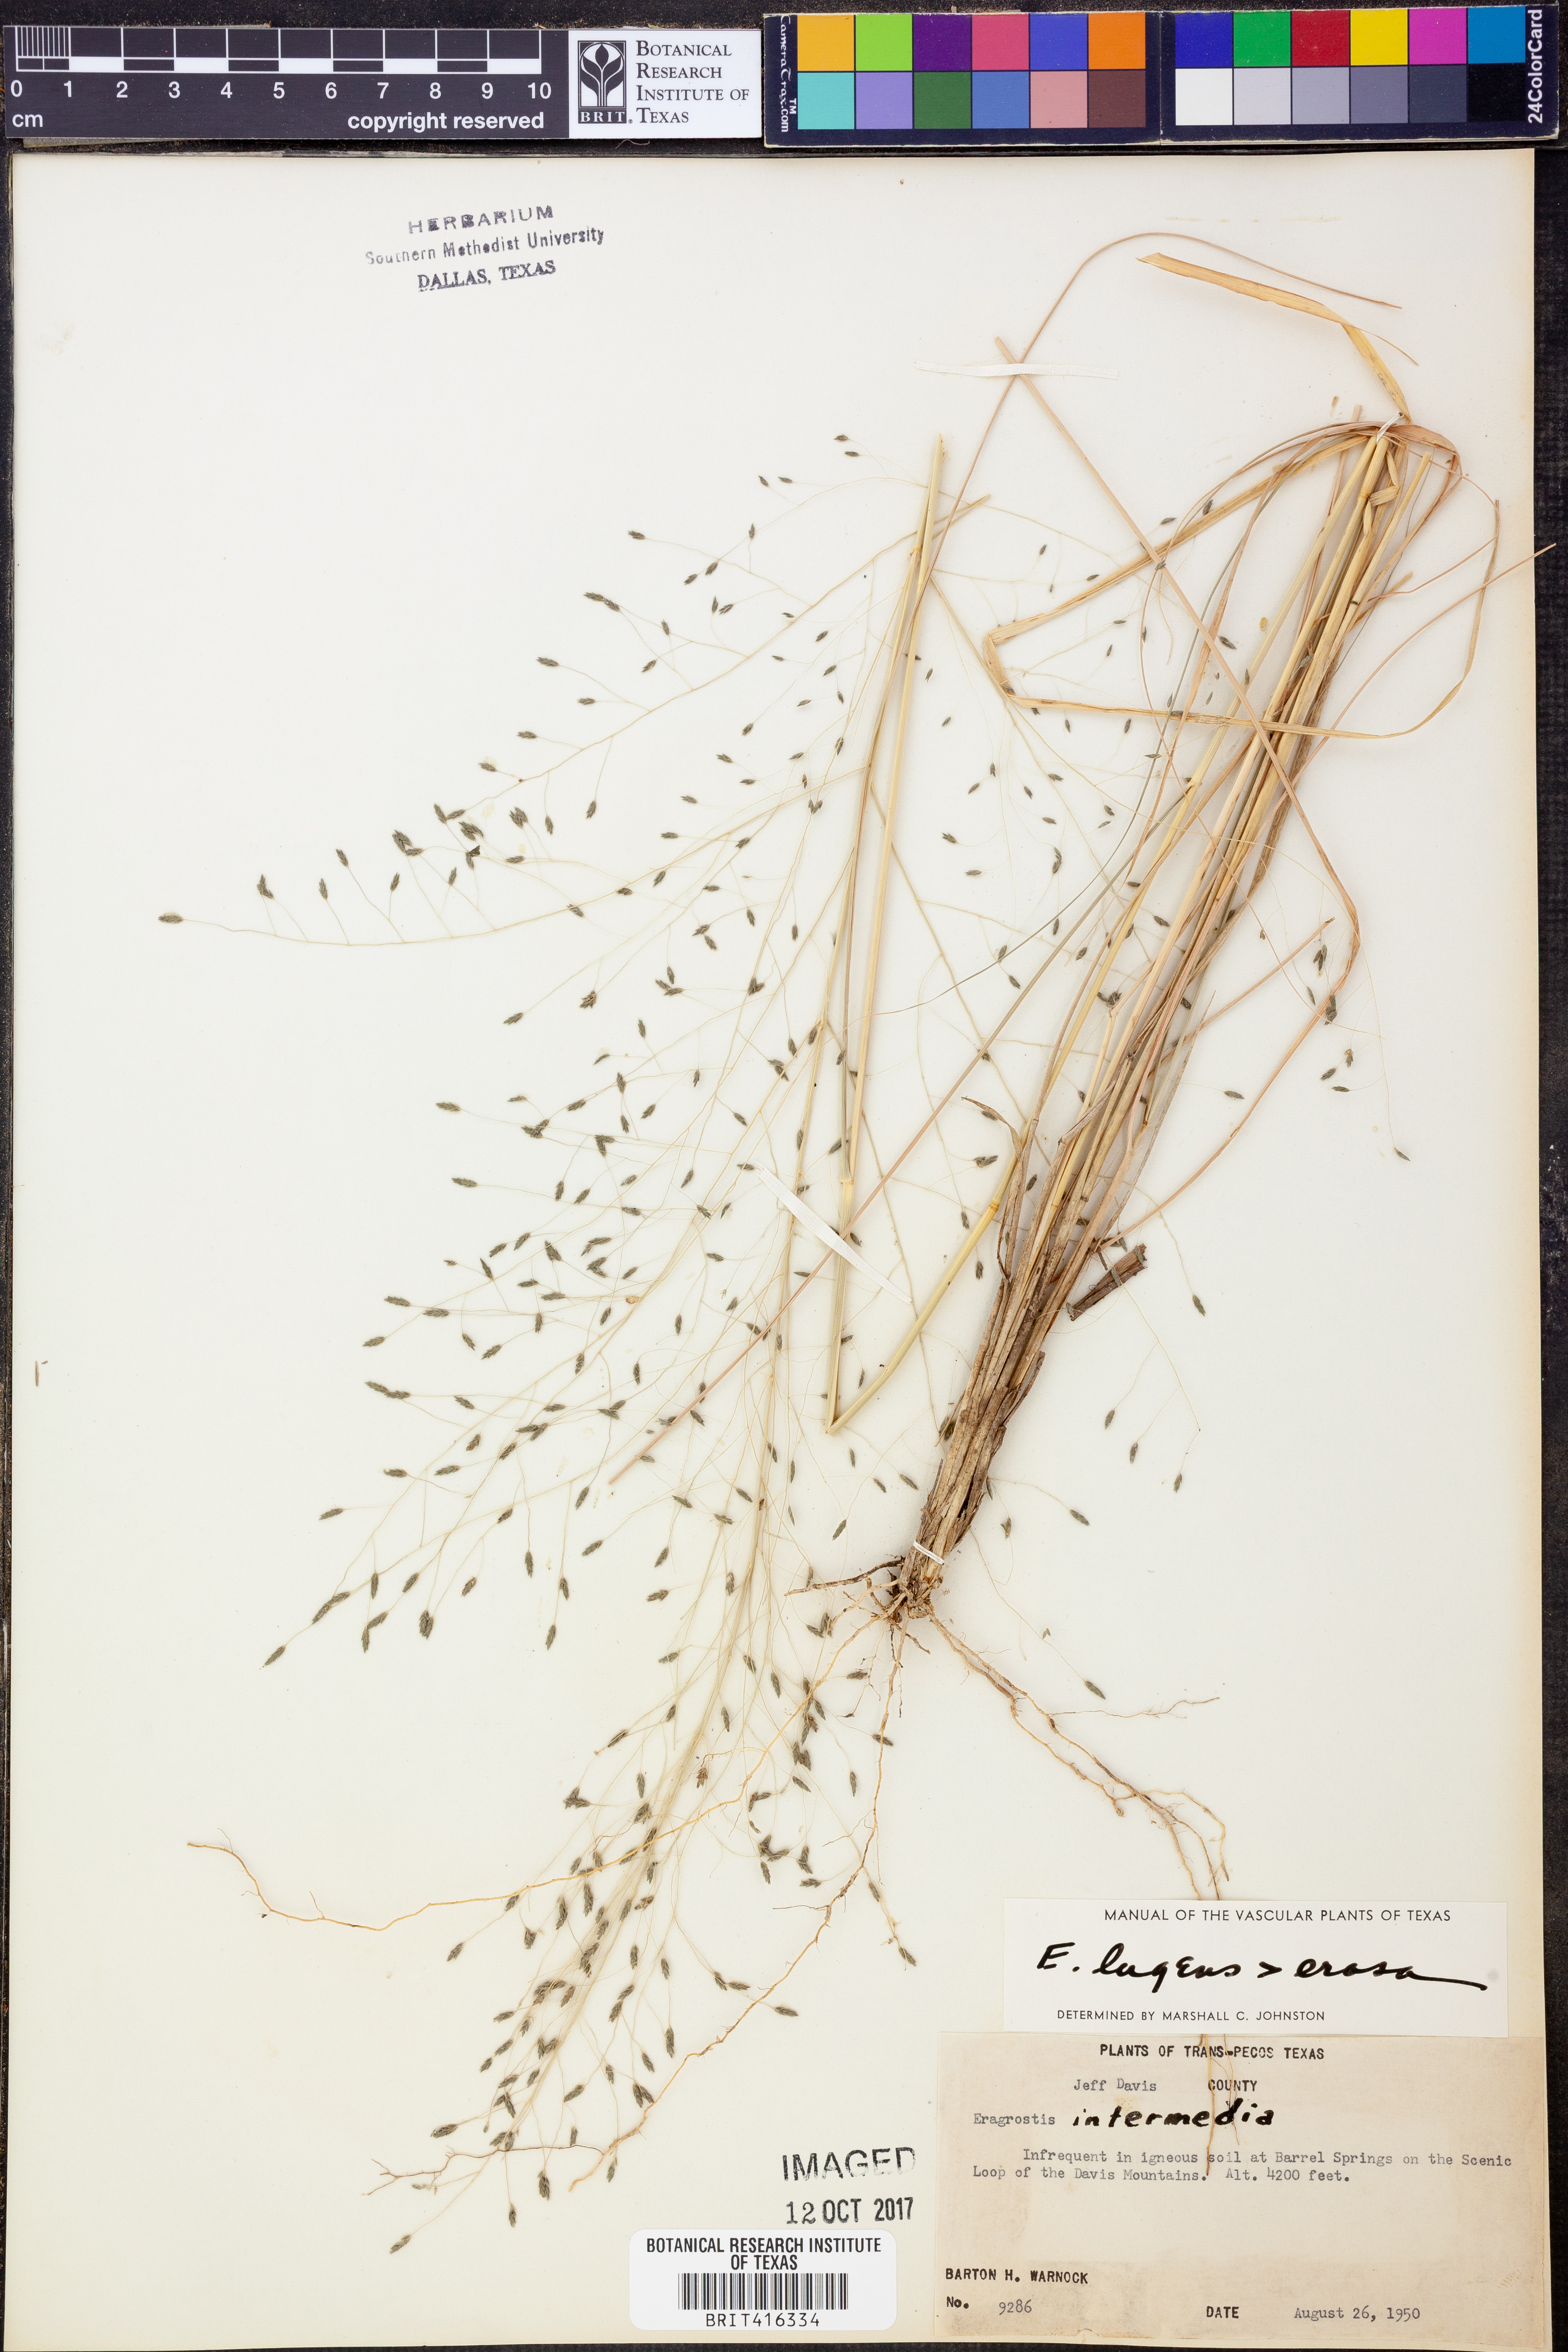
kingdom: Plantae
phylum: Tracheophyta
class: Liliopsida
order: Poales
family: Poaceae
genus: Eragrostis
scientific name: Eragrostis intermedia
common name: Plains love grass
